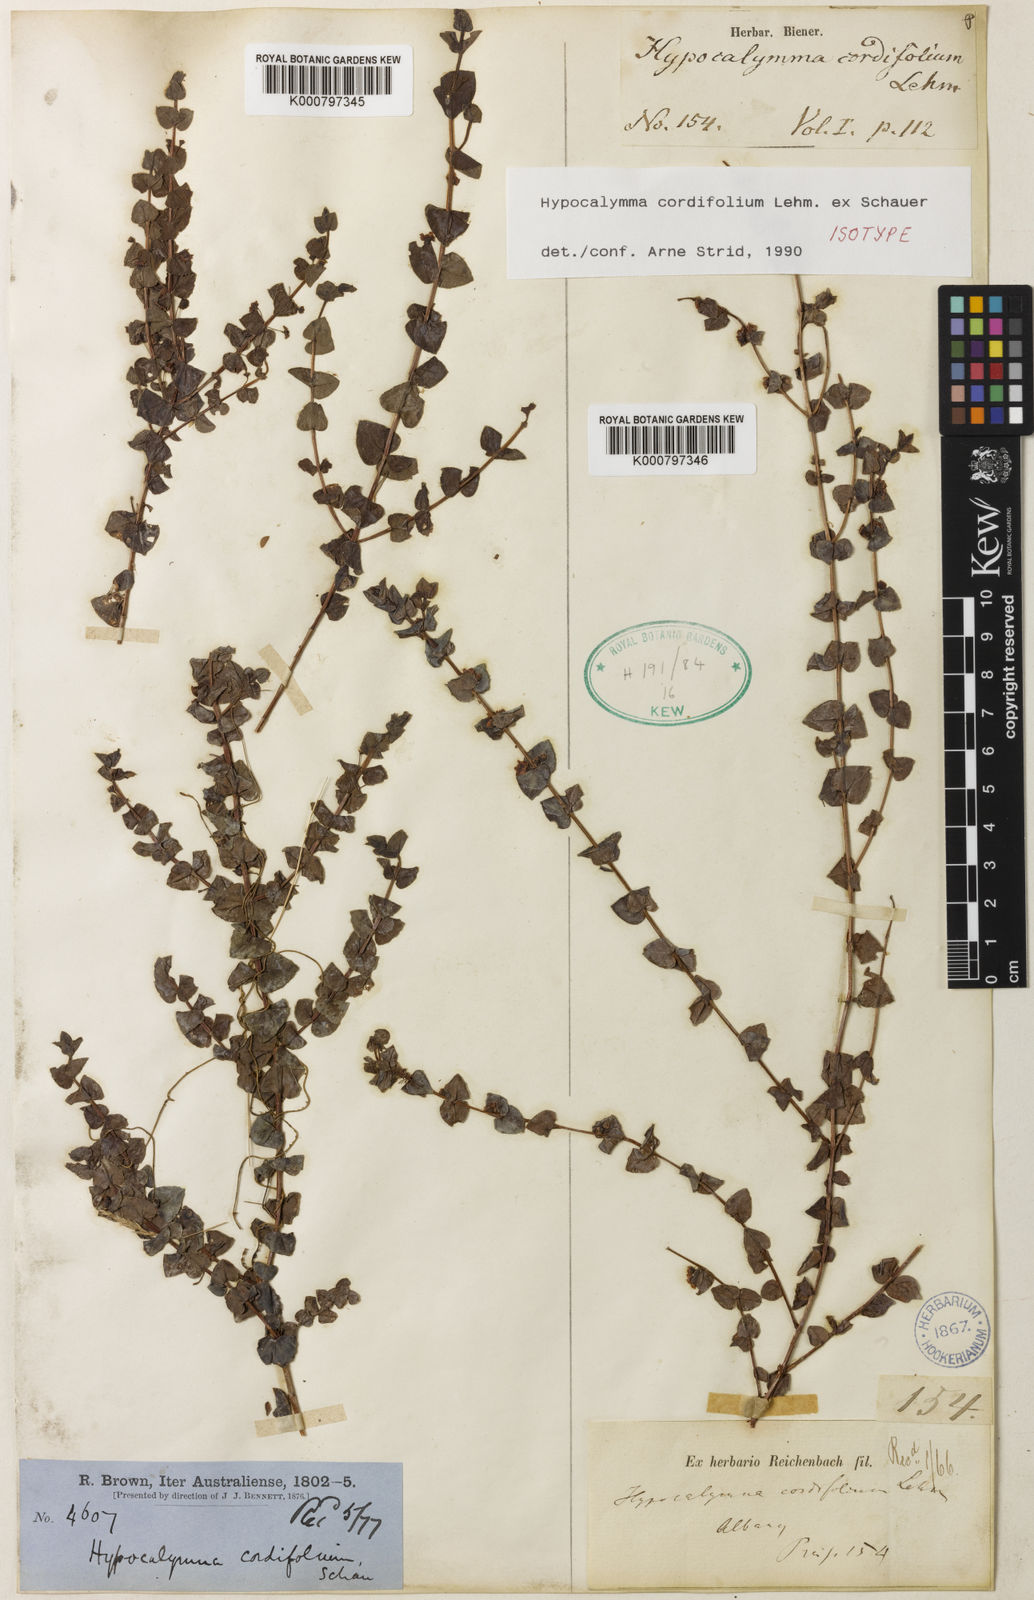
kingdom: Plantae
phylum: Tracheophyta
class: Magnoliopsida
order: Myrtales
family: Myrtaceae
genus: Hypocalymma
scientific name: Hypocalymma cordifolium
